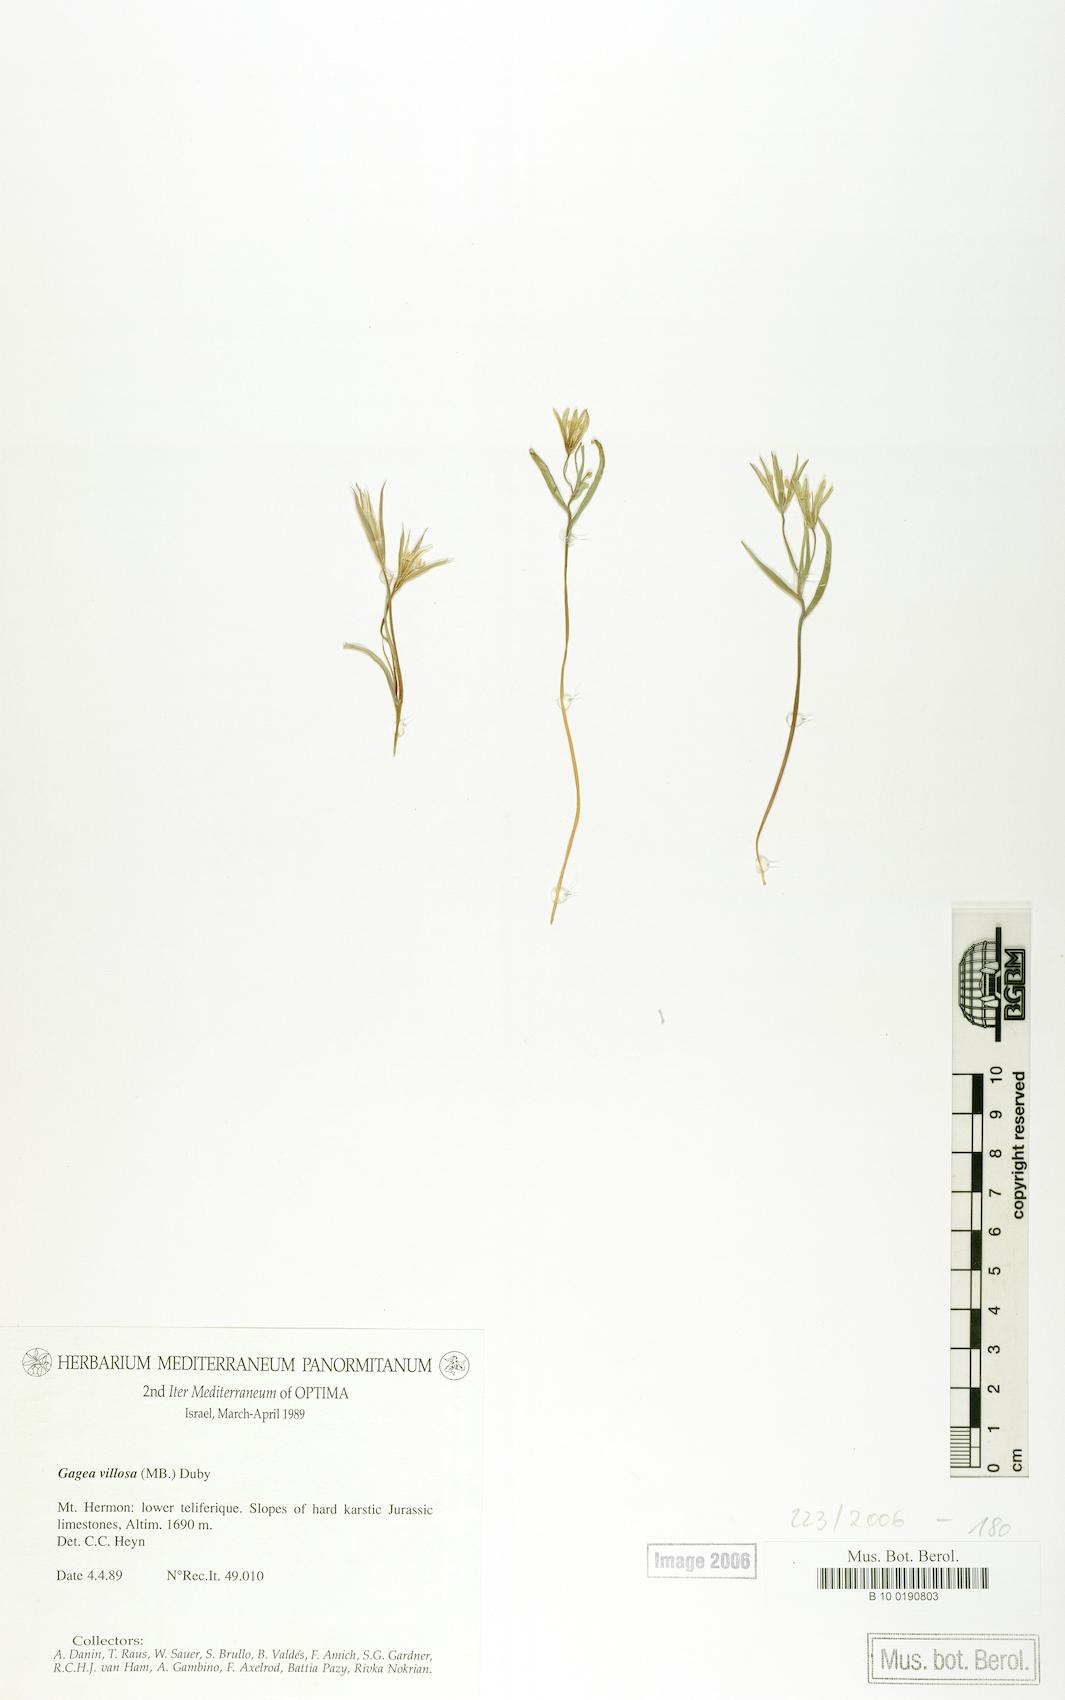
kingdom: Plantae
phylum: Tracheophyta
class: Liliopsida
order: Liliales
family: Liliaceae
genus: Gagea
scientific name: Gagea villosa
